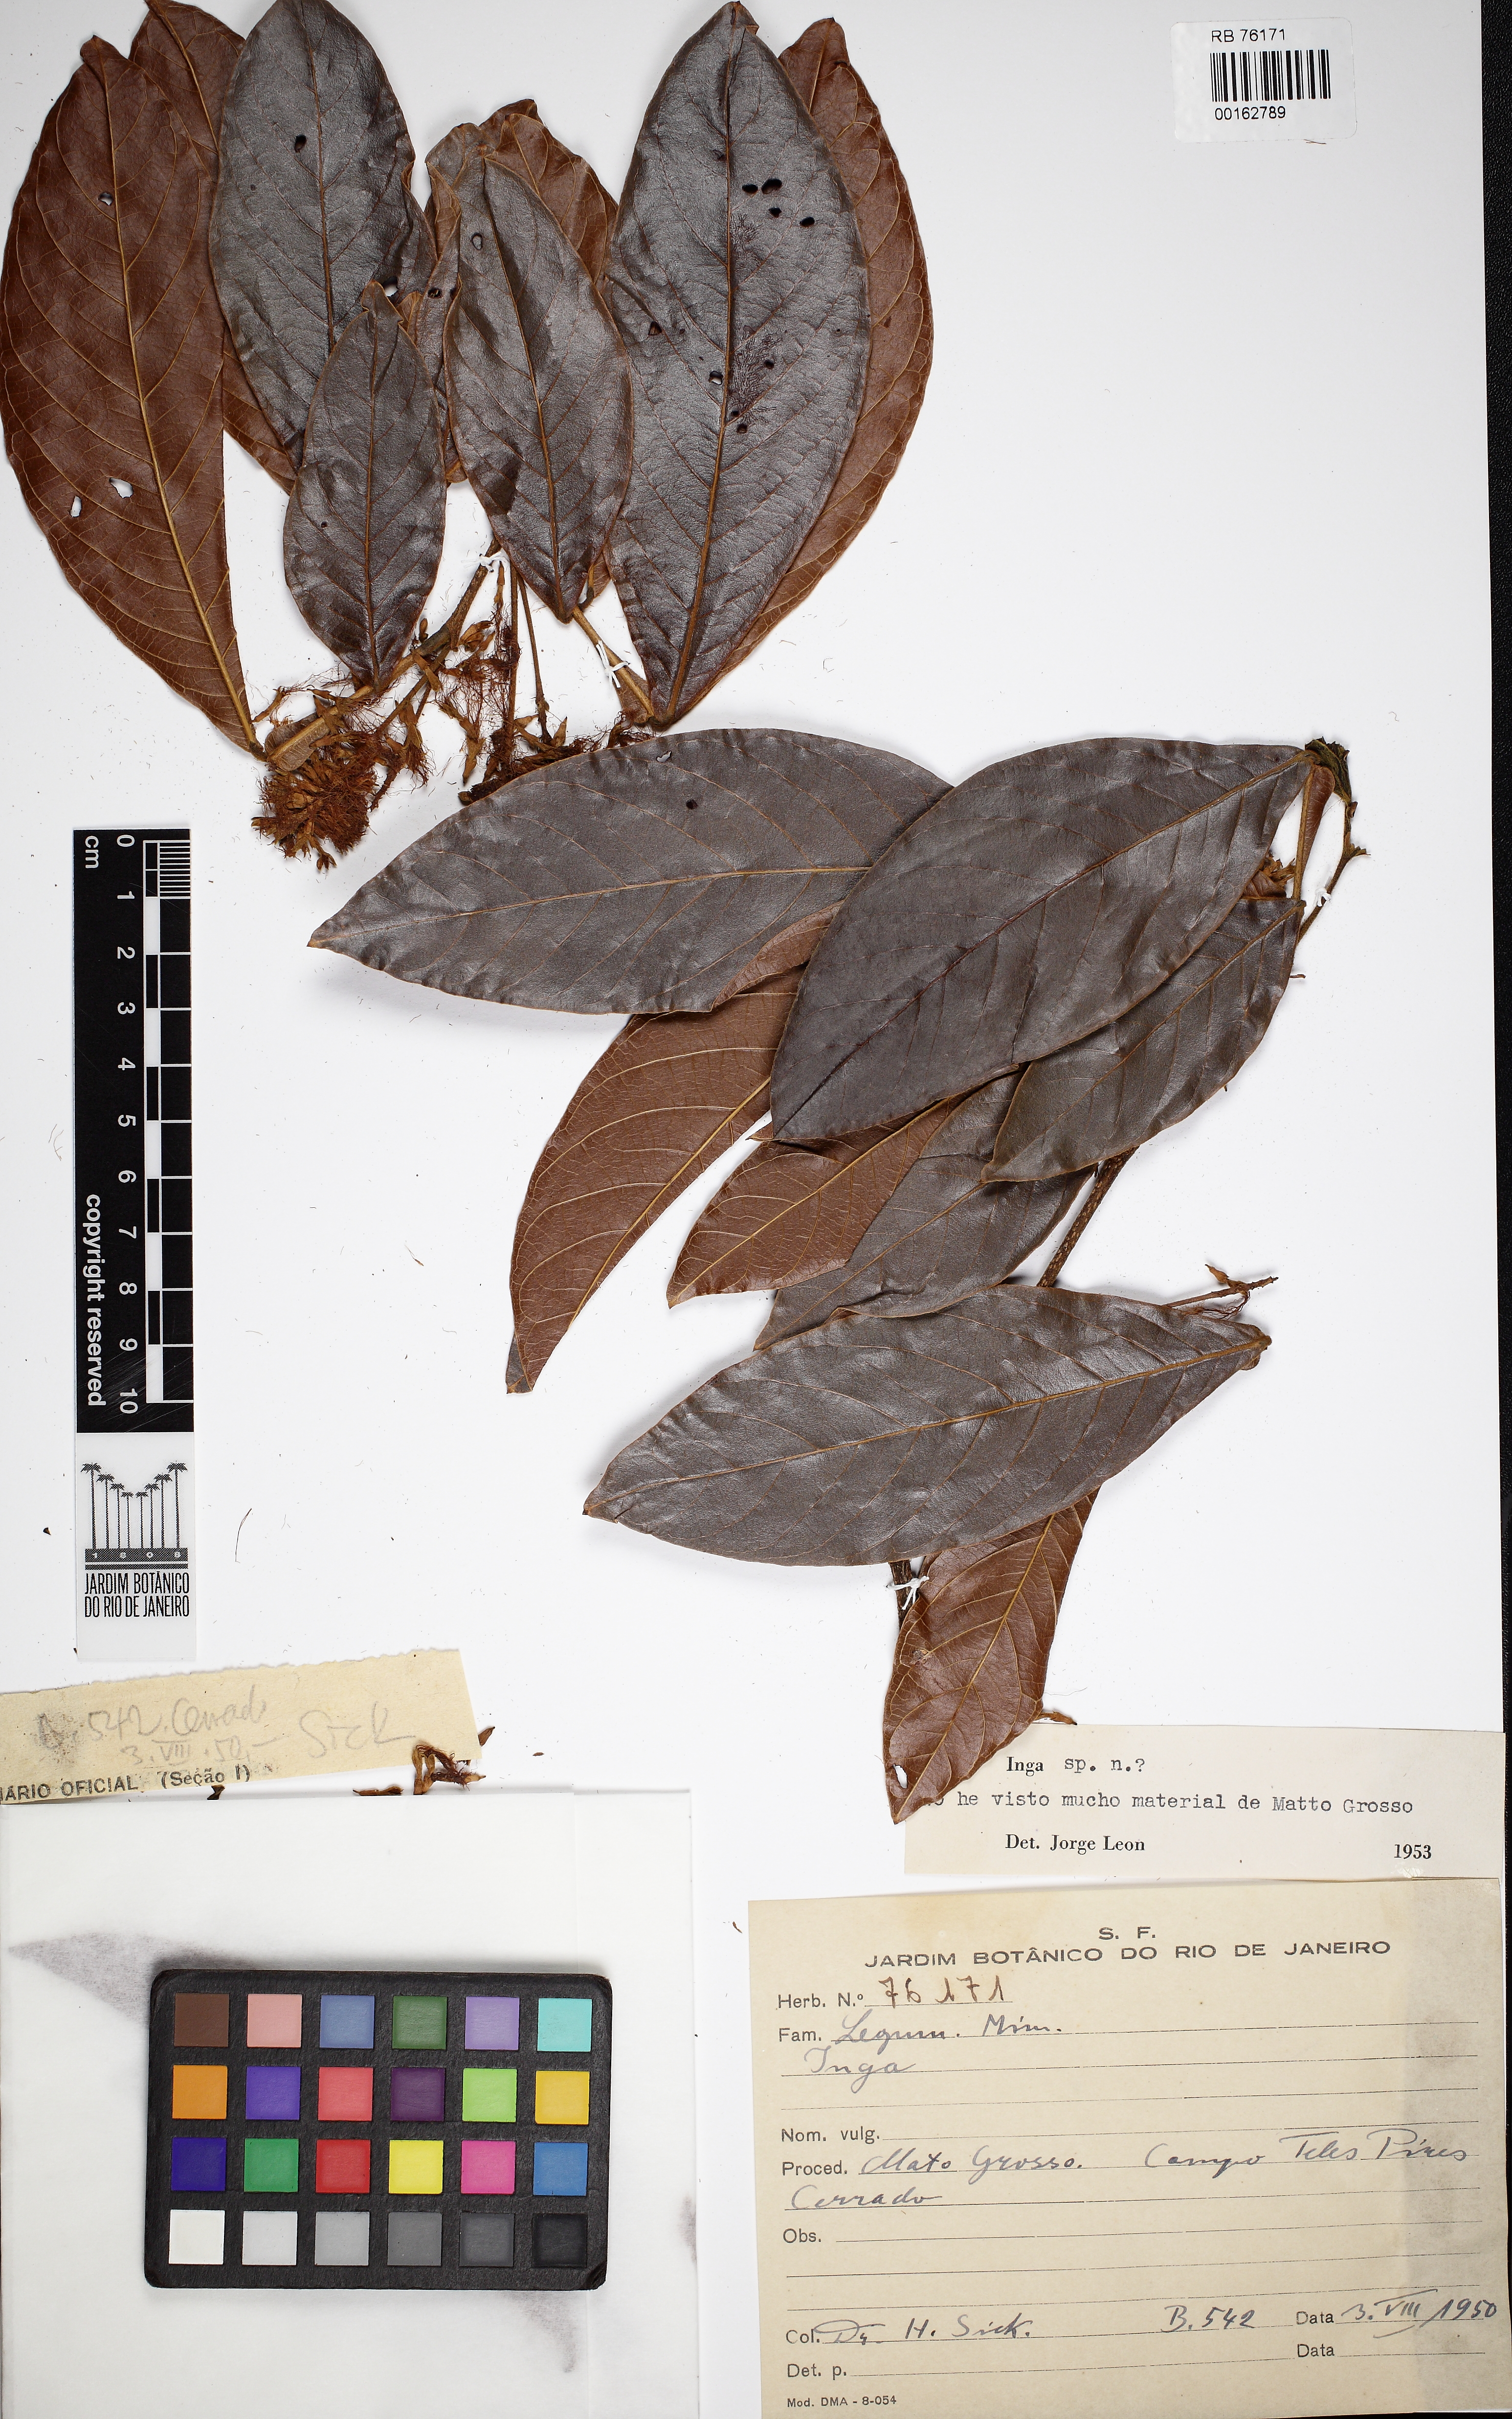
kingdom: Plantae
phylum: Tracheophyta
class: Magnoliopsida
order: Fabales
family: Fabaceae
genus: Inga
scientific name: Inga
